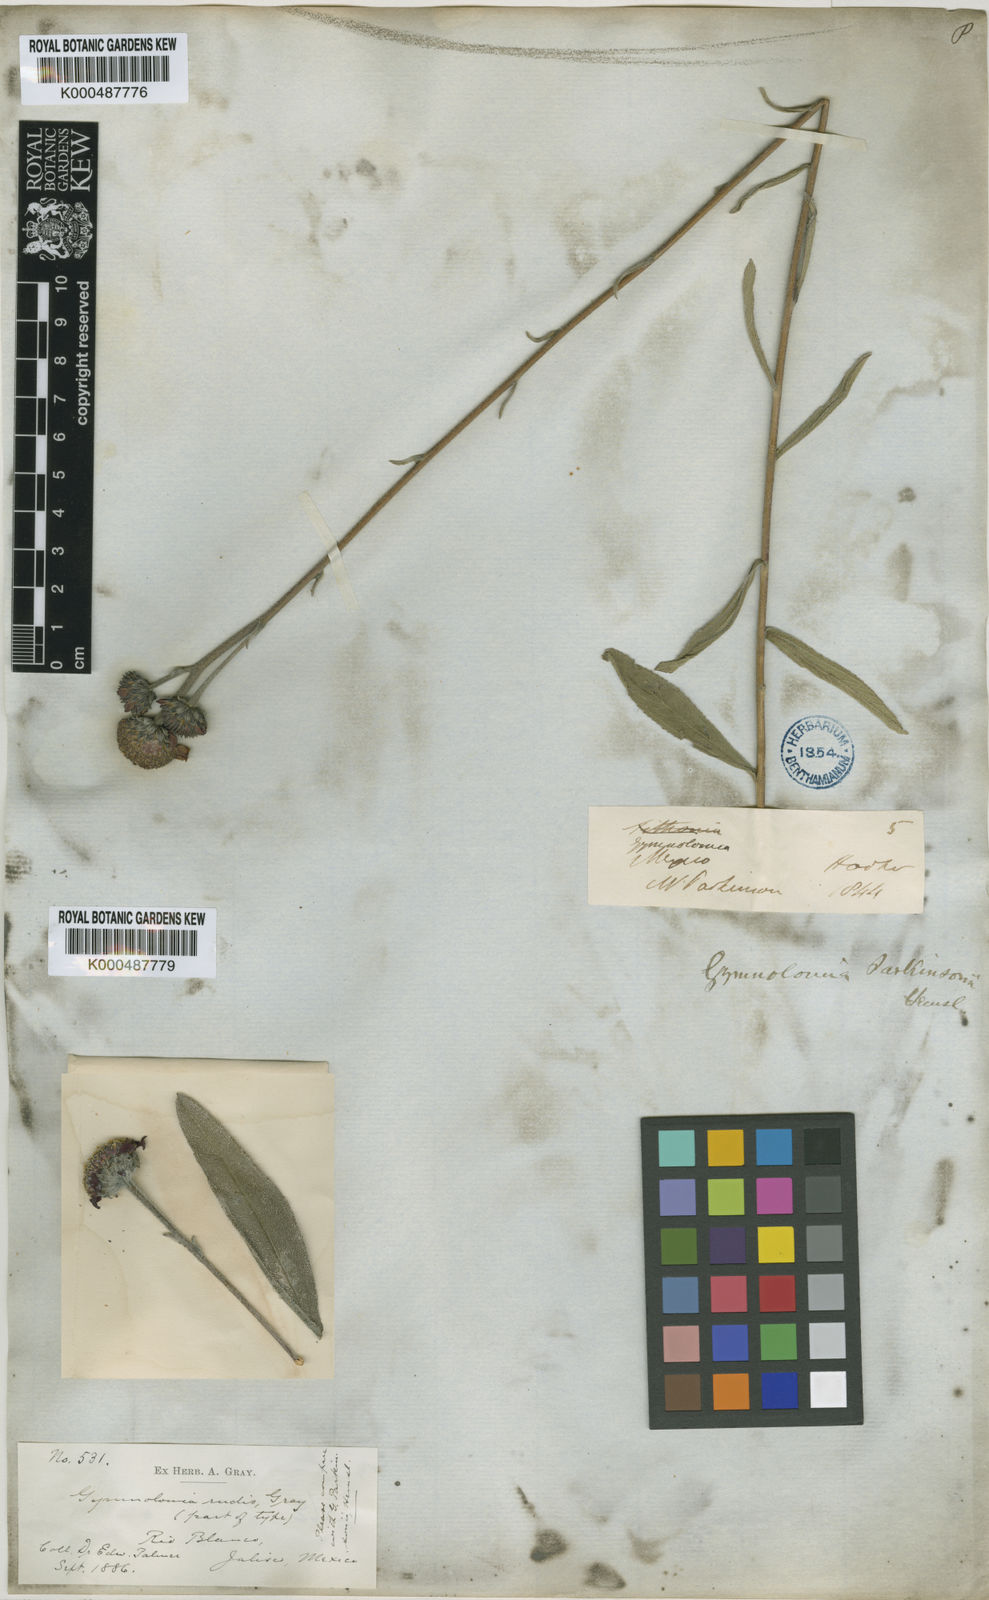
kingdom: Plantae
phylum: Tracheophyta
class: Magnoliopsida
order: Asterales
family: Asteraceae
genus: Aldama
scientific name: Aldama parkinsonii
